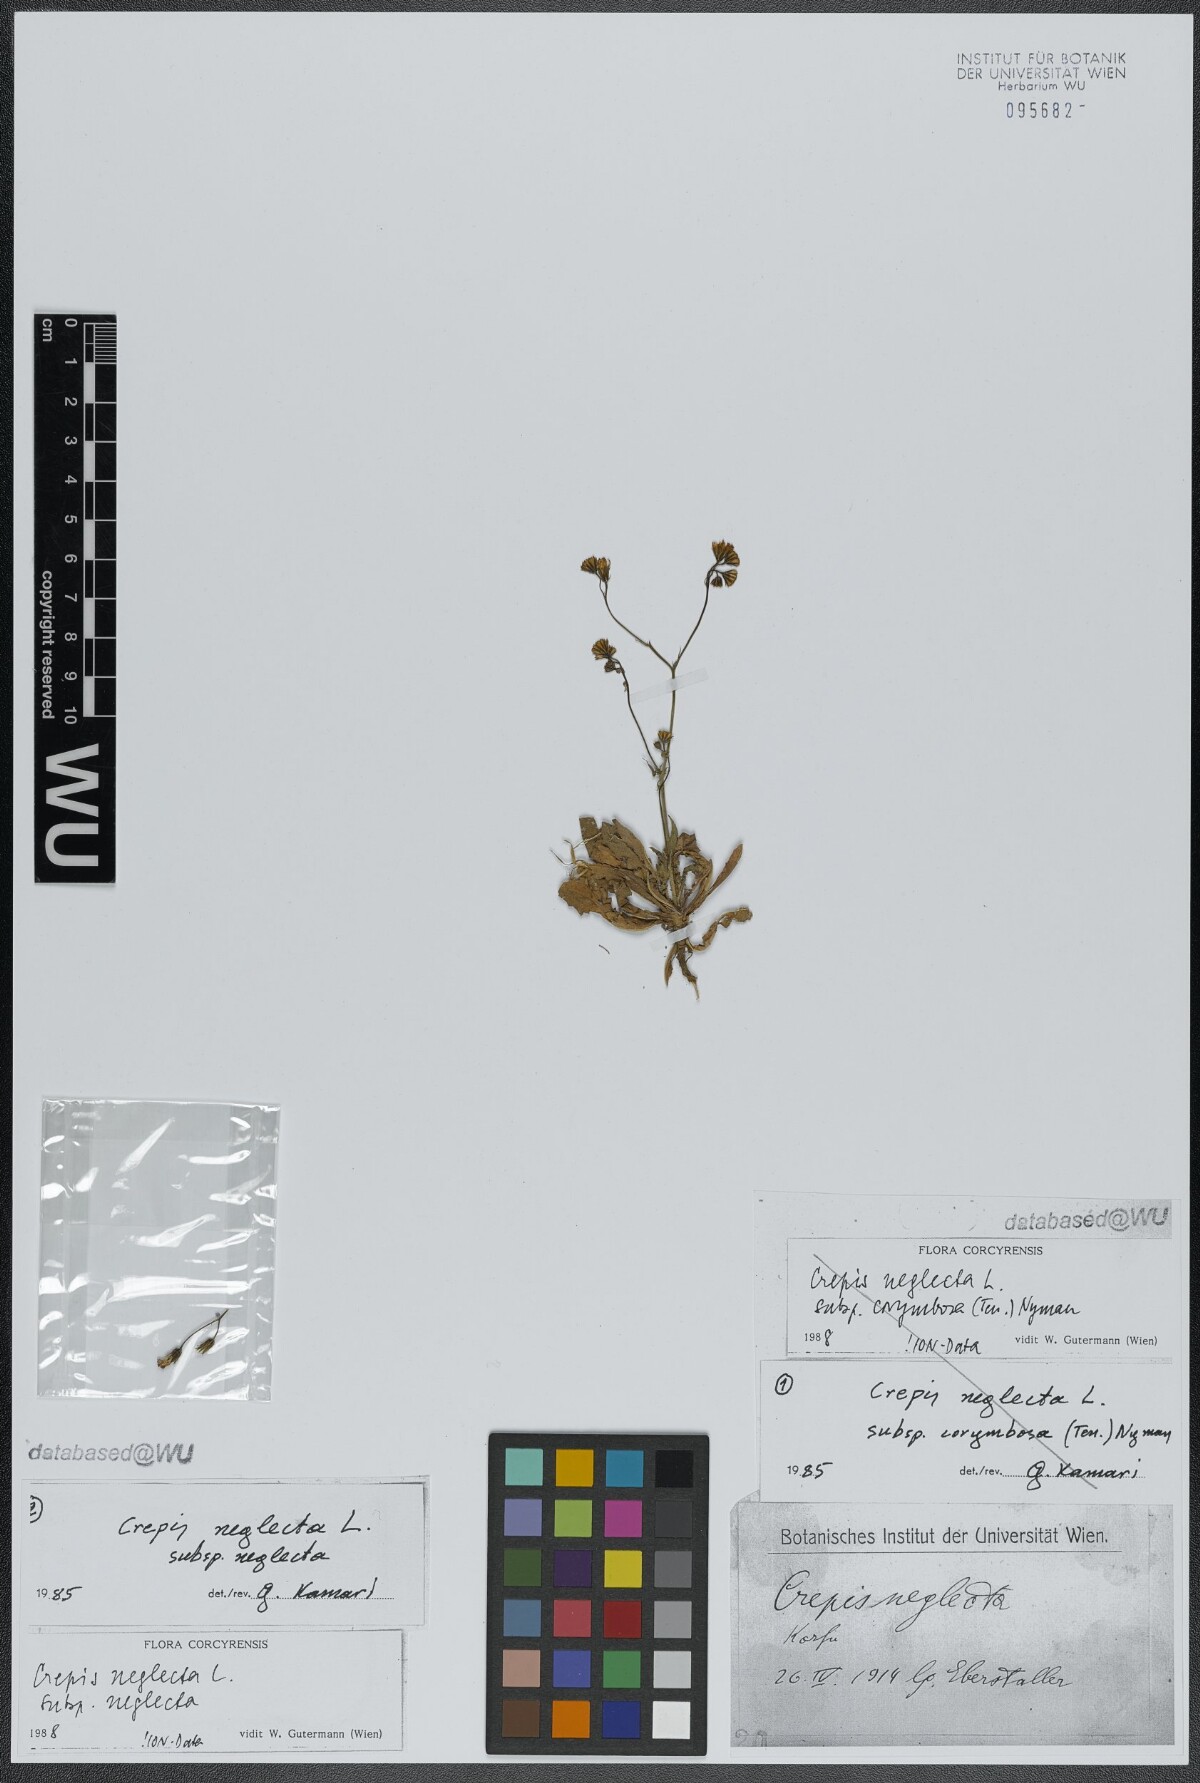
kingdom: Plantae
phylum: Tracheophyta
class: Magnoliopsida
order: Asterales
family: Asteraceae
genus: Crepis
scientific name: Crepis neglecta
